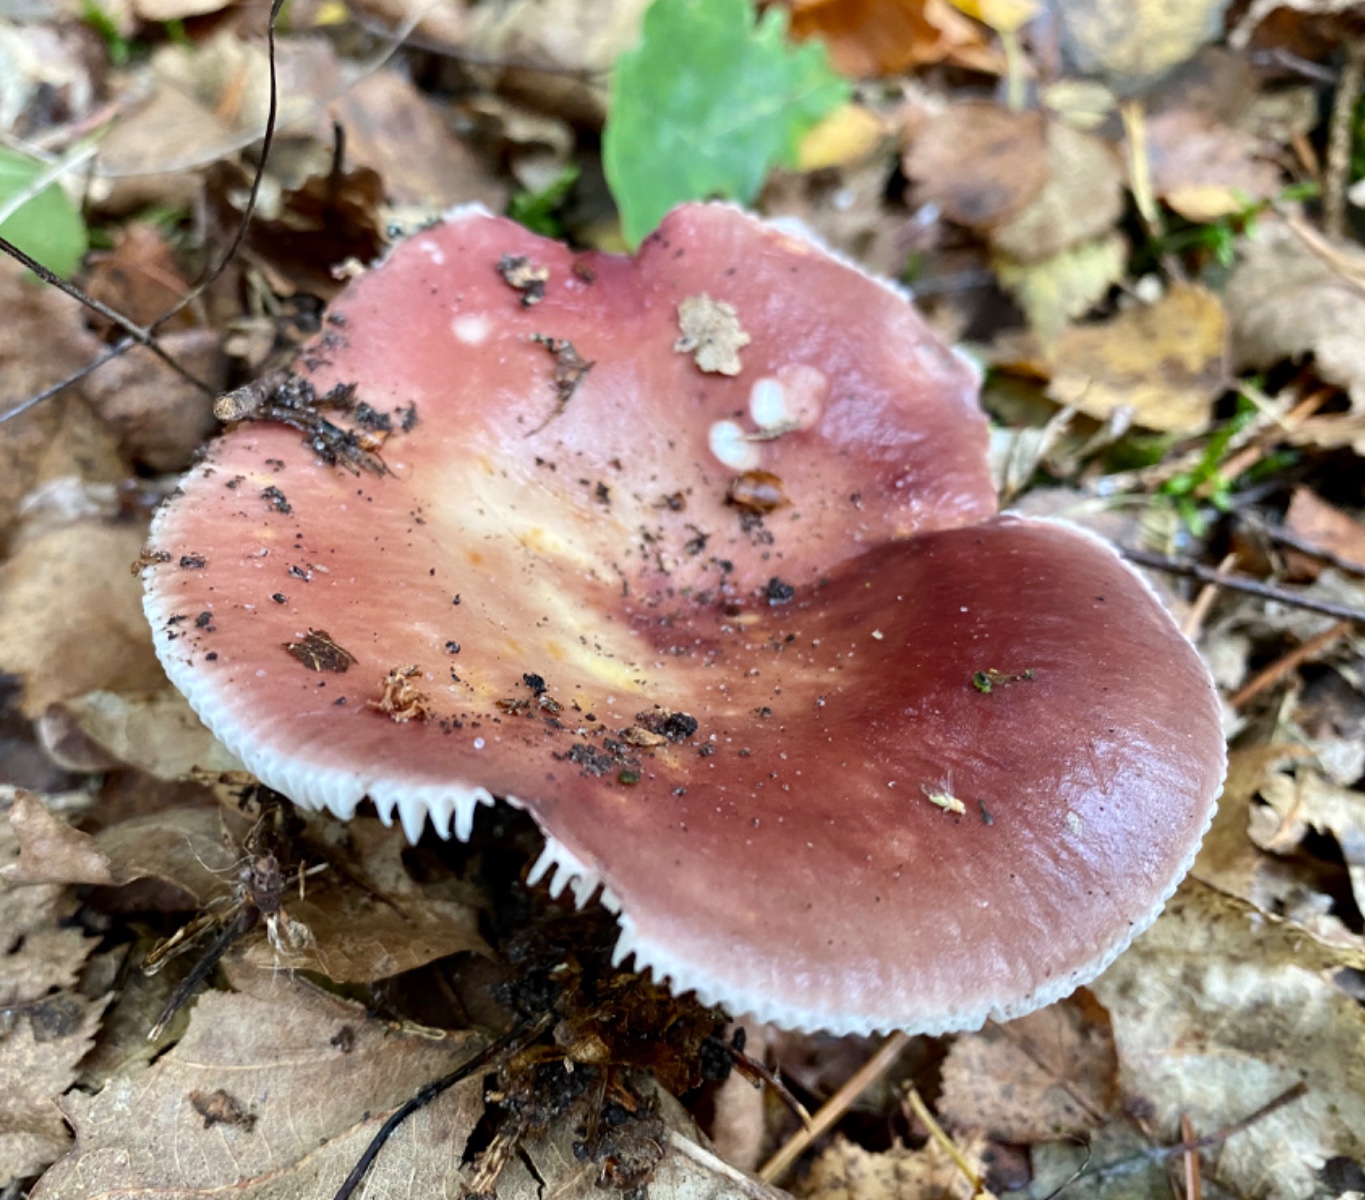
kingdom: Fungi
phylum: Basidiomycota
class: Agaricomycetes
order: Russulales
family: Russulaceae
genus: Russula
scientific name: Russula vesca
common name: spiselig skørhat
